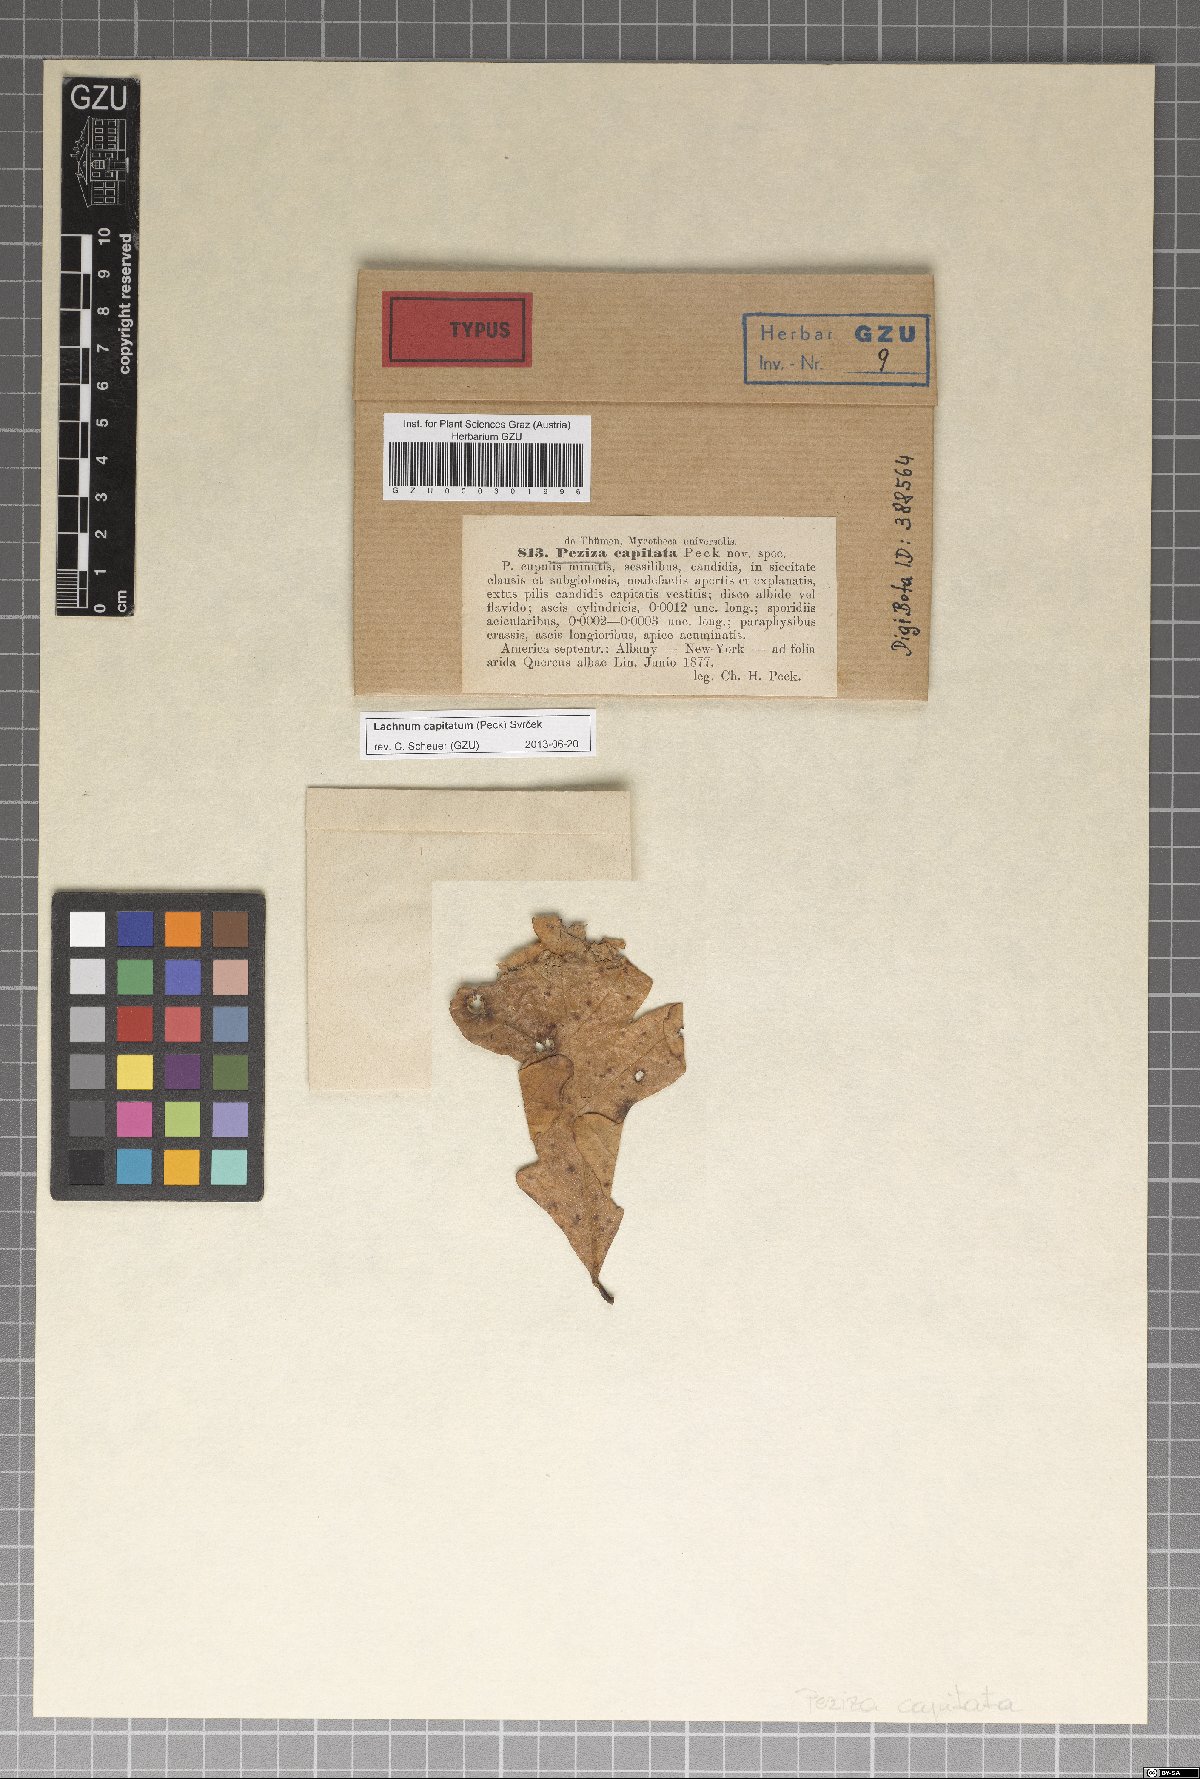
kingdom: Fungi
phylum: Ascomycota
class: Leotiomycetes
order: Helotiales
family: Lachnaceae
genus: Lachnum
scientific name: Lachnum capitatum
